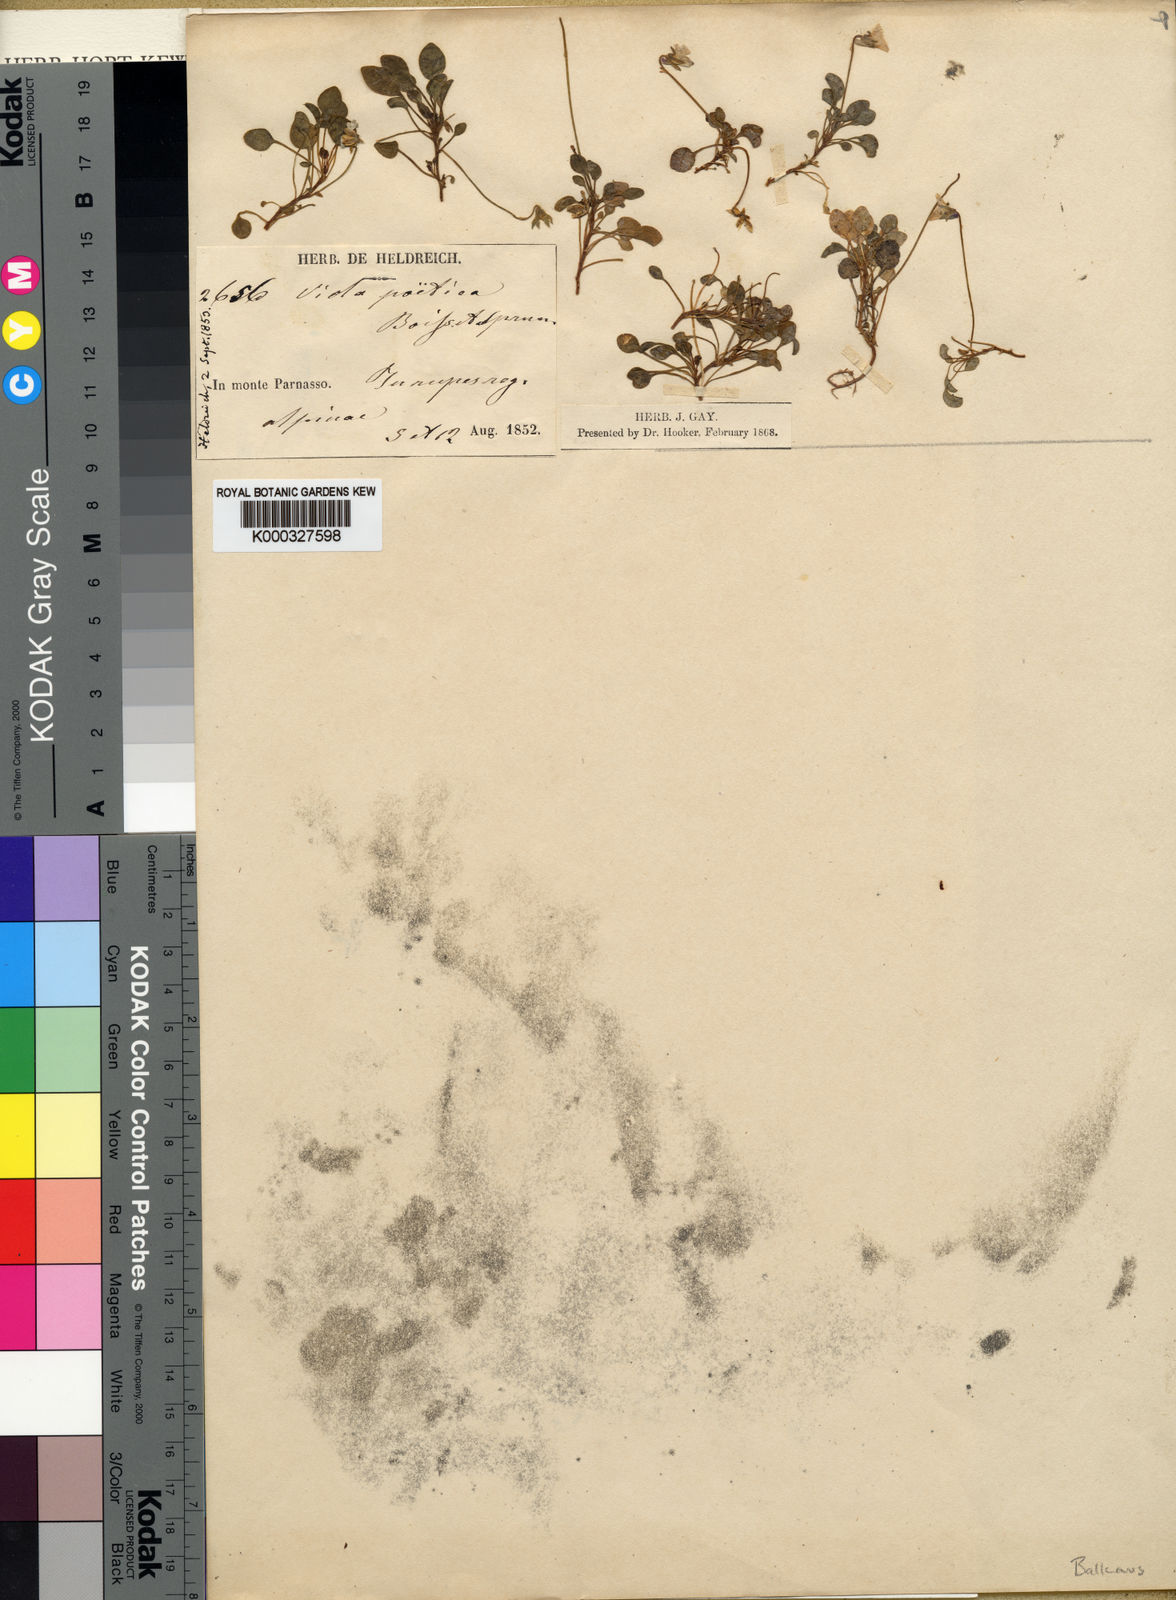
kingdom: Plantae
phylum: Tracheophyta
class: Magnoliopsida
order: Malpighiales
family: Violaceae
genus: Viola
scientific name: Viola poetica
